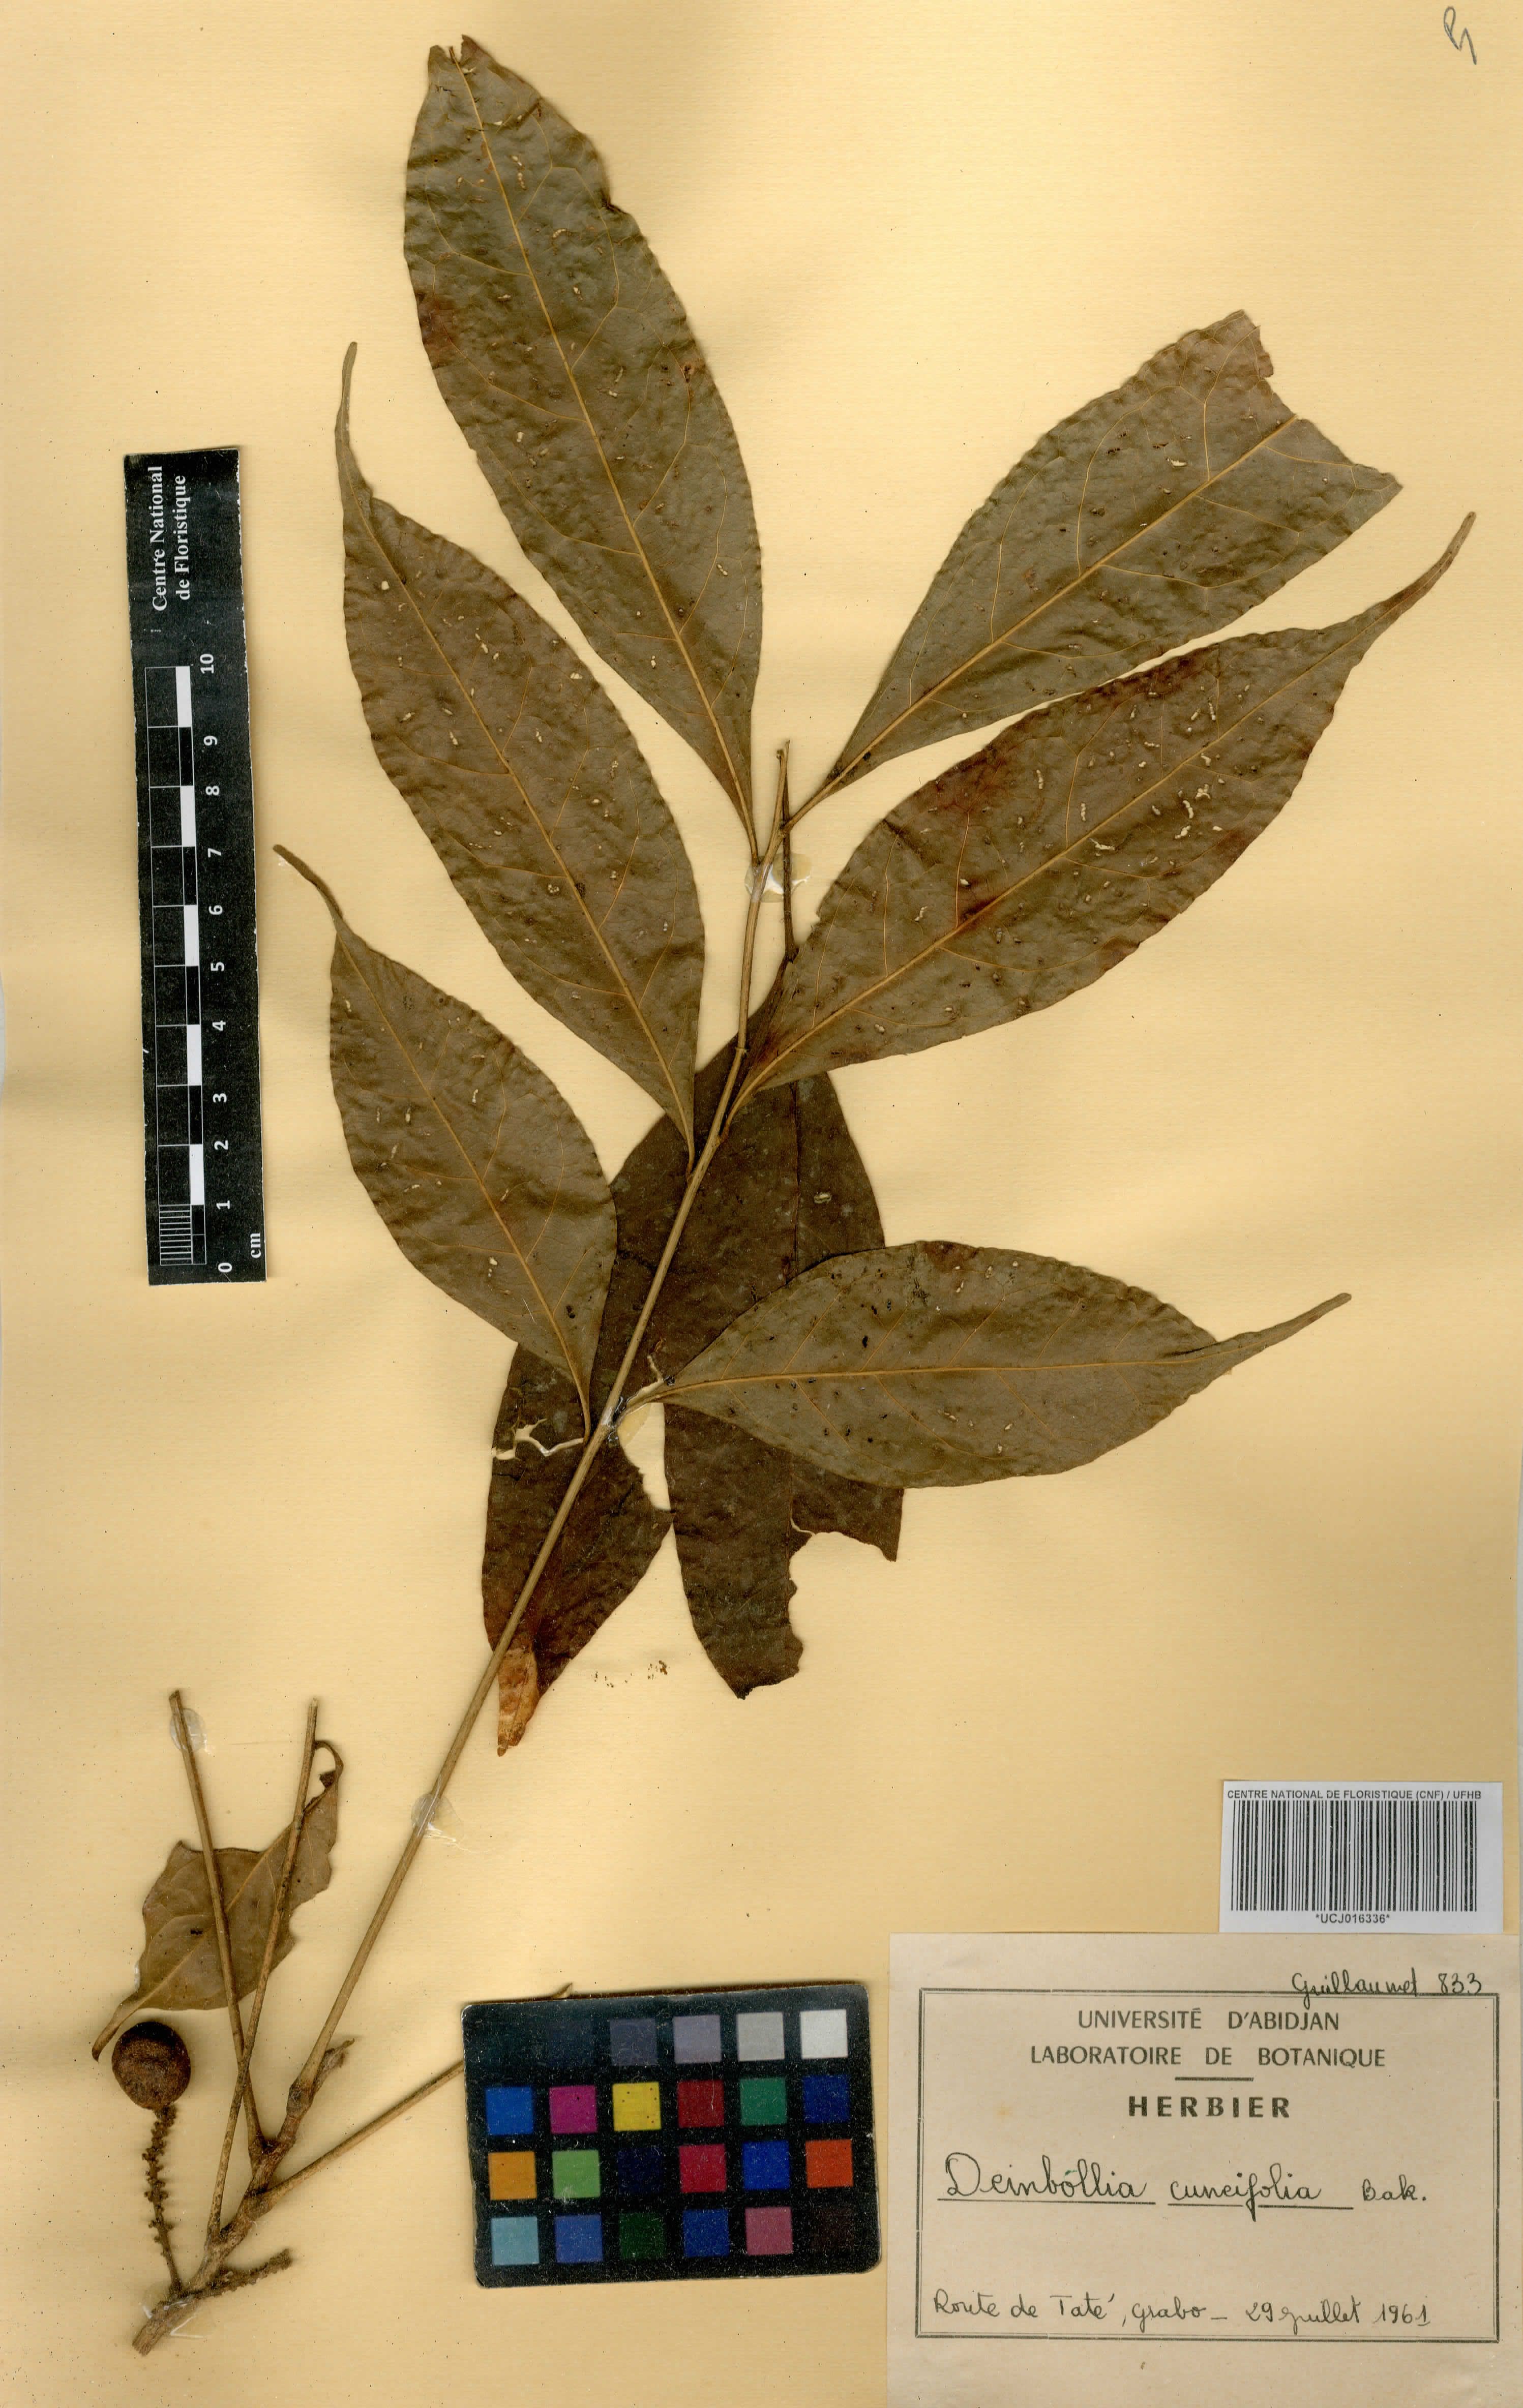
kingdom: Plantae
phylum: Tracheophyta
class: Magnoliopsida
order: Sapindales
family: Sapindaceae
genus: Deinbollia
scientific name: Deinbollia cuneifolia
